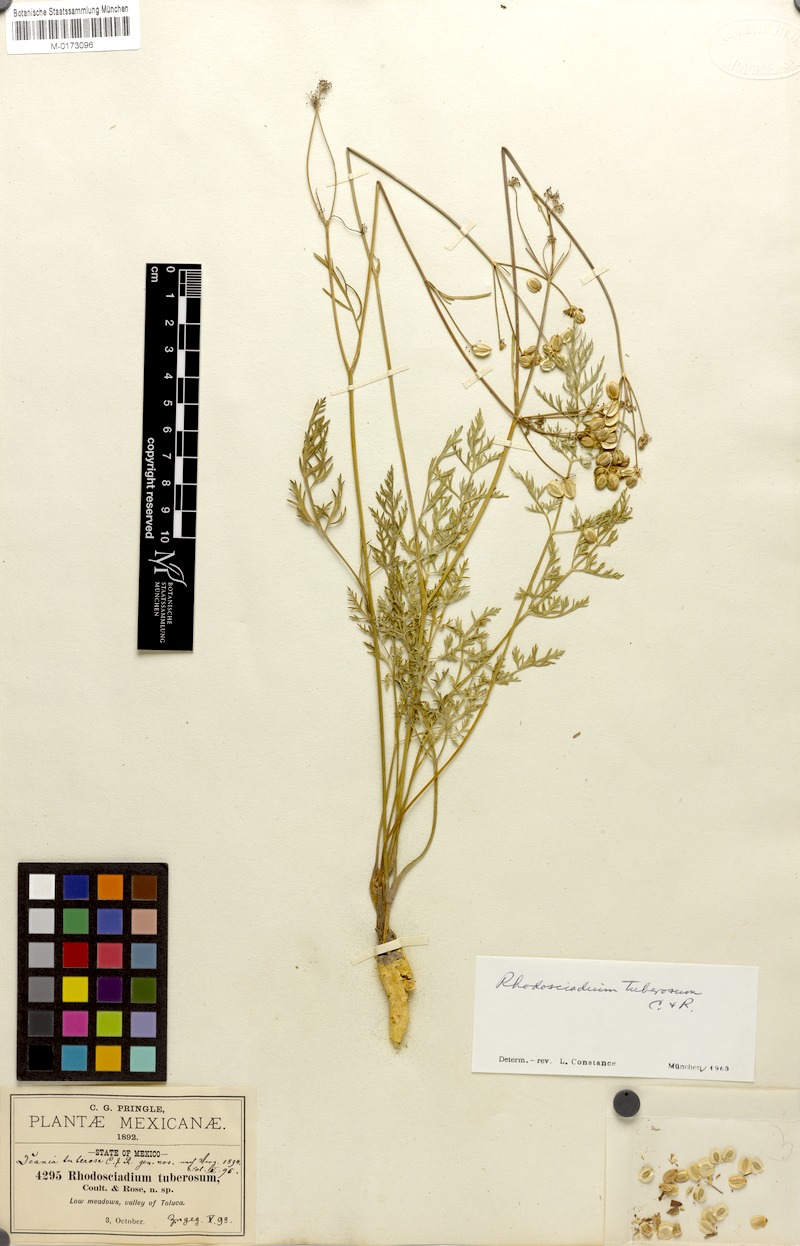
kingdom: Plantae
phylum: Tracheophyta
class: Magnoliopsida
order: Apiales
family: Apiaceae
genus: Rhodosciadium
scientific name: Rhodosciadium tuberosum
